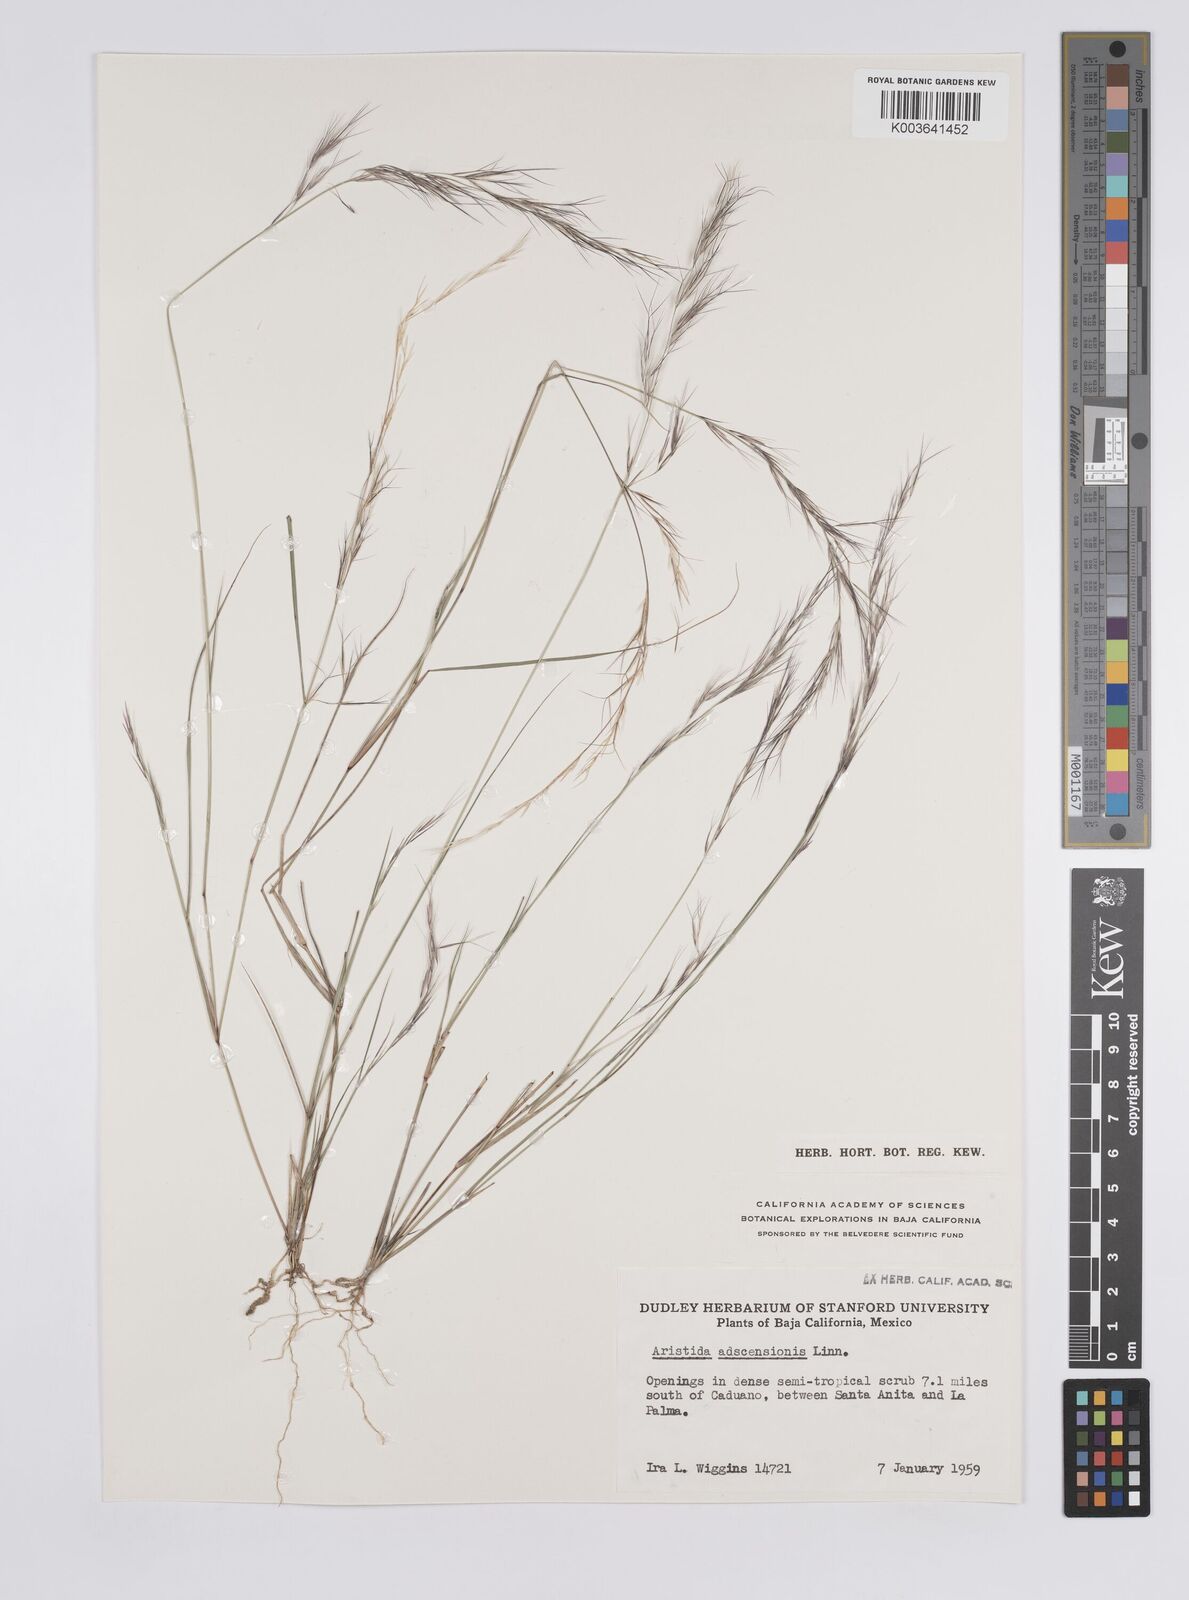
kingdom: Plantae
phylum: Tracheophyta
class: Liliopsida
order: Poales
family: Poaceae
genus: Aristida
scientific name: Aristida adscensionis
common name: Sixweeks threeawn
